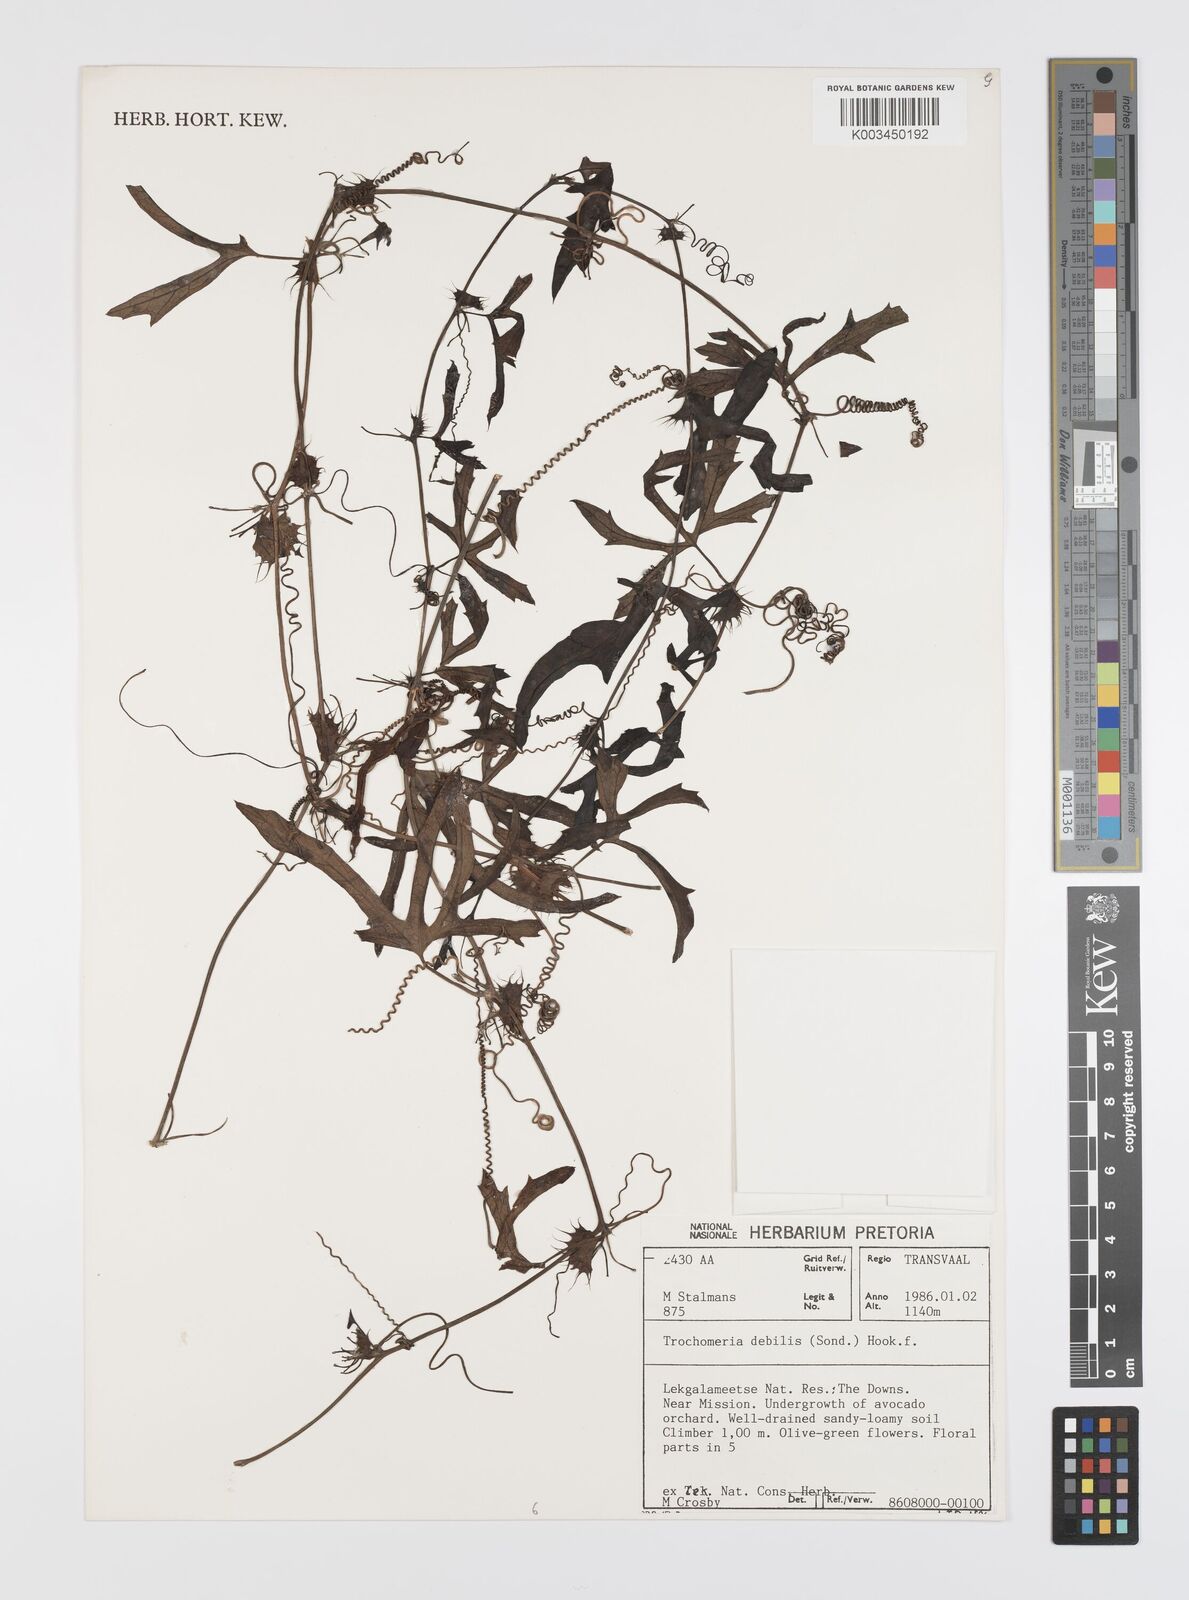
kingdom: Plantae
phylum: Tracheophyta
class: Magnoliopsida
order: Cucurbitales
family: Cucurbitaceae
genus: Trochomeria
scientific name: Trochomeria debilis
